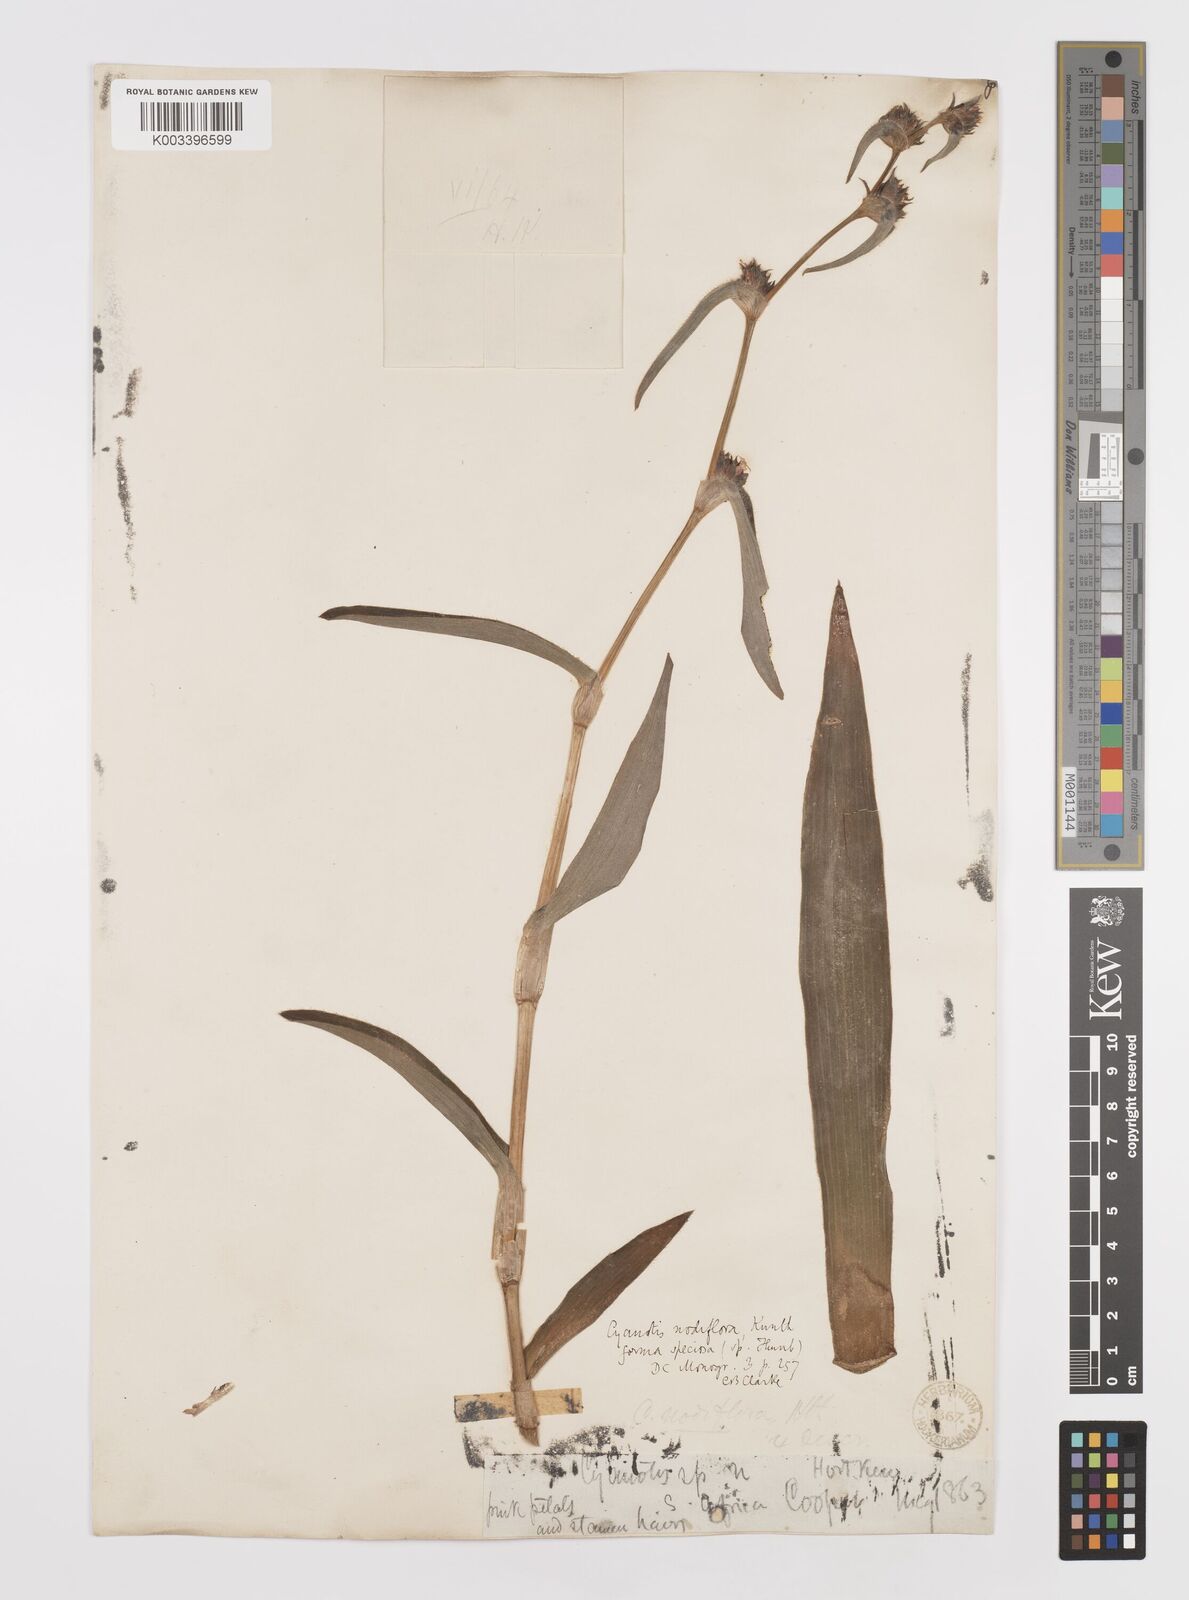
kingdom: Plantae
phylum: Tracheophyta
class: Liliopsida
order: Commelinales
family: Commelinaceae
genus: Cyanotis
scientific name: Cyanotis speciosa
